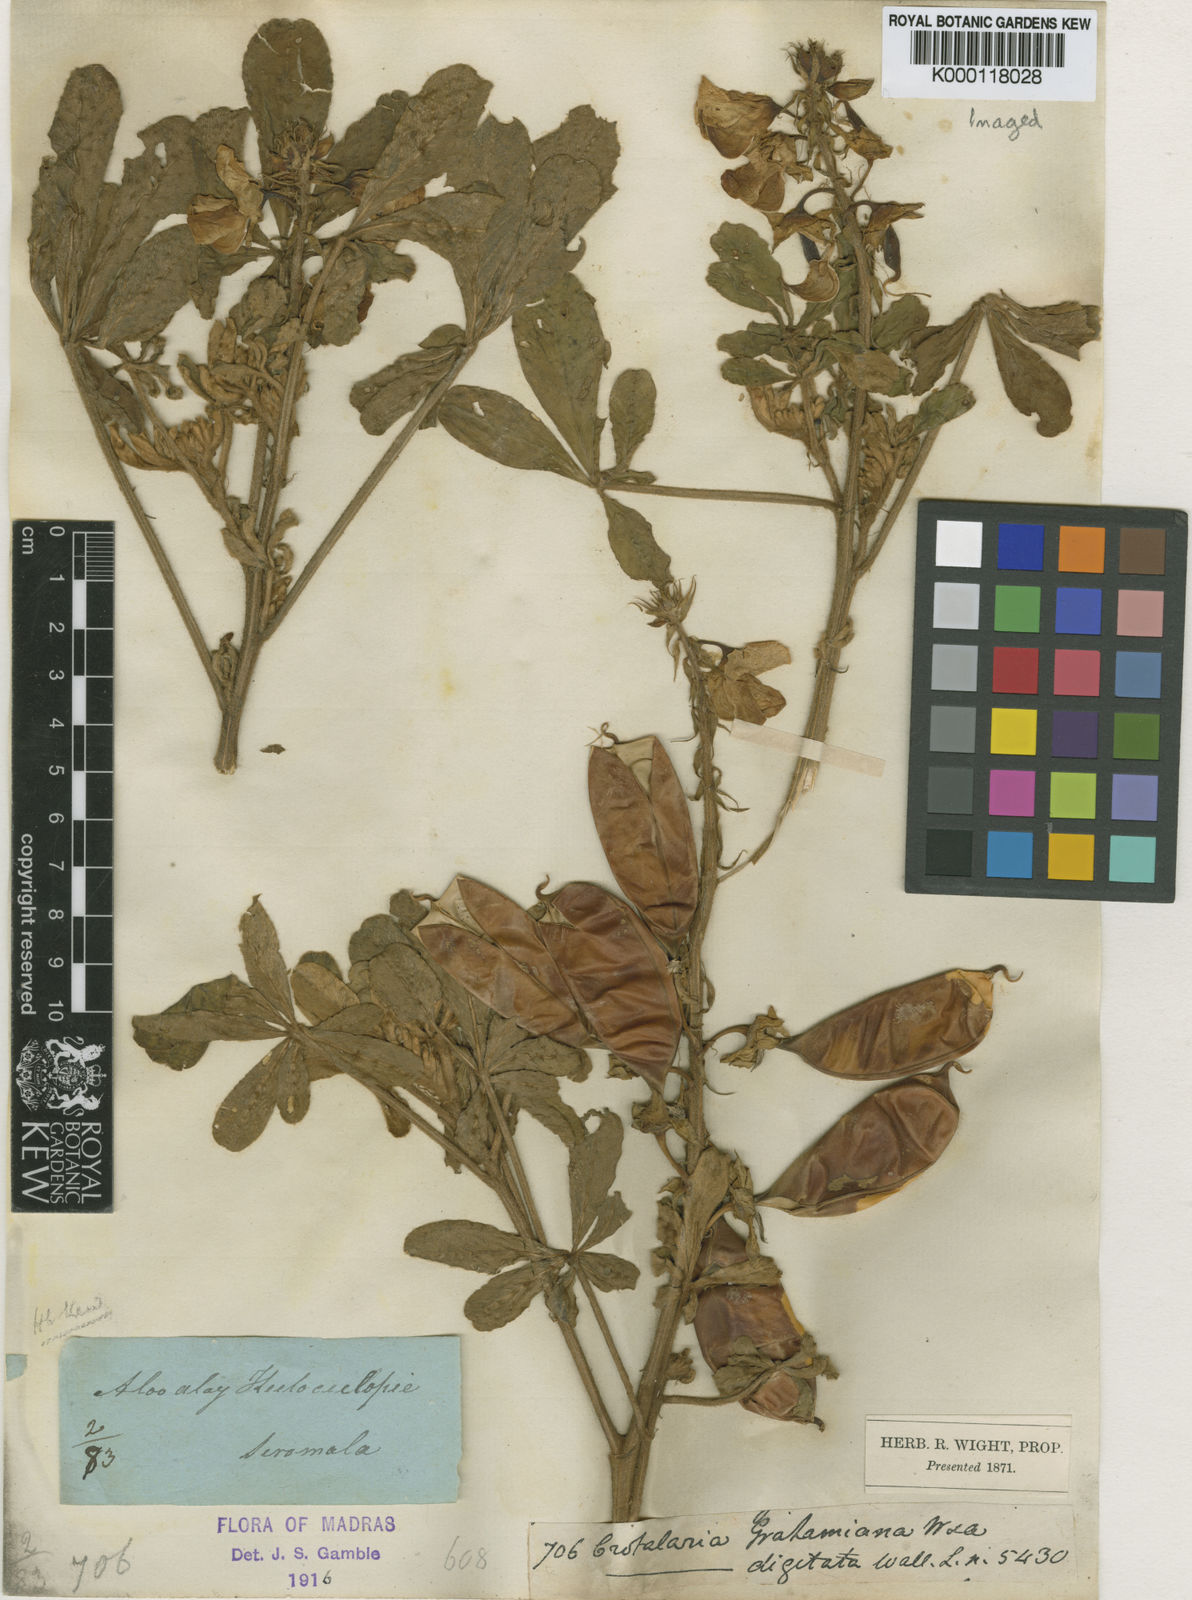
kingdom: Plantae
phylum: Tracheophyta
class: Magnoliopsida
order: Fabales
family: Fabaceae
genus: Crotalaria
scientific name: Crotalaria grahamiana
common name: Bushy rattlepod
